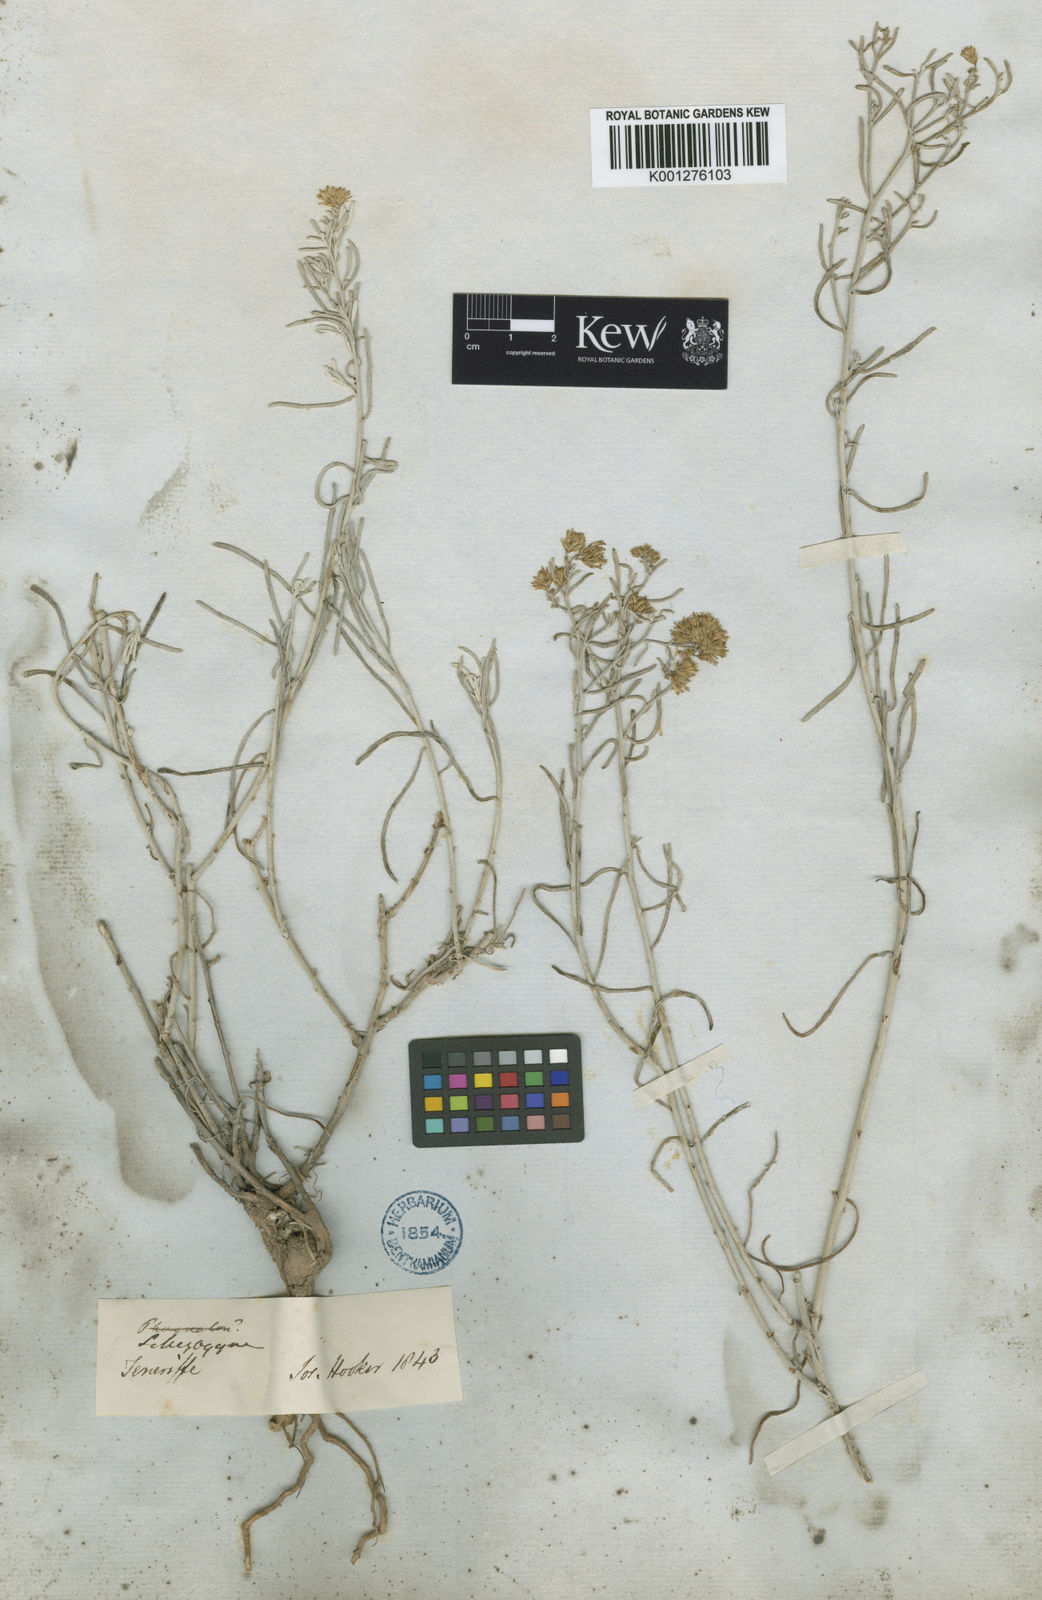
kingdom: Plantae
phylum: Tracheophyta
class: Magnoliopsida
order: Asterales
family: Asteraceae
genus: Schizogyne
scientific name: Schizogyne sericea
